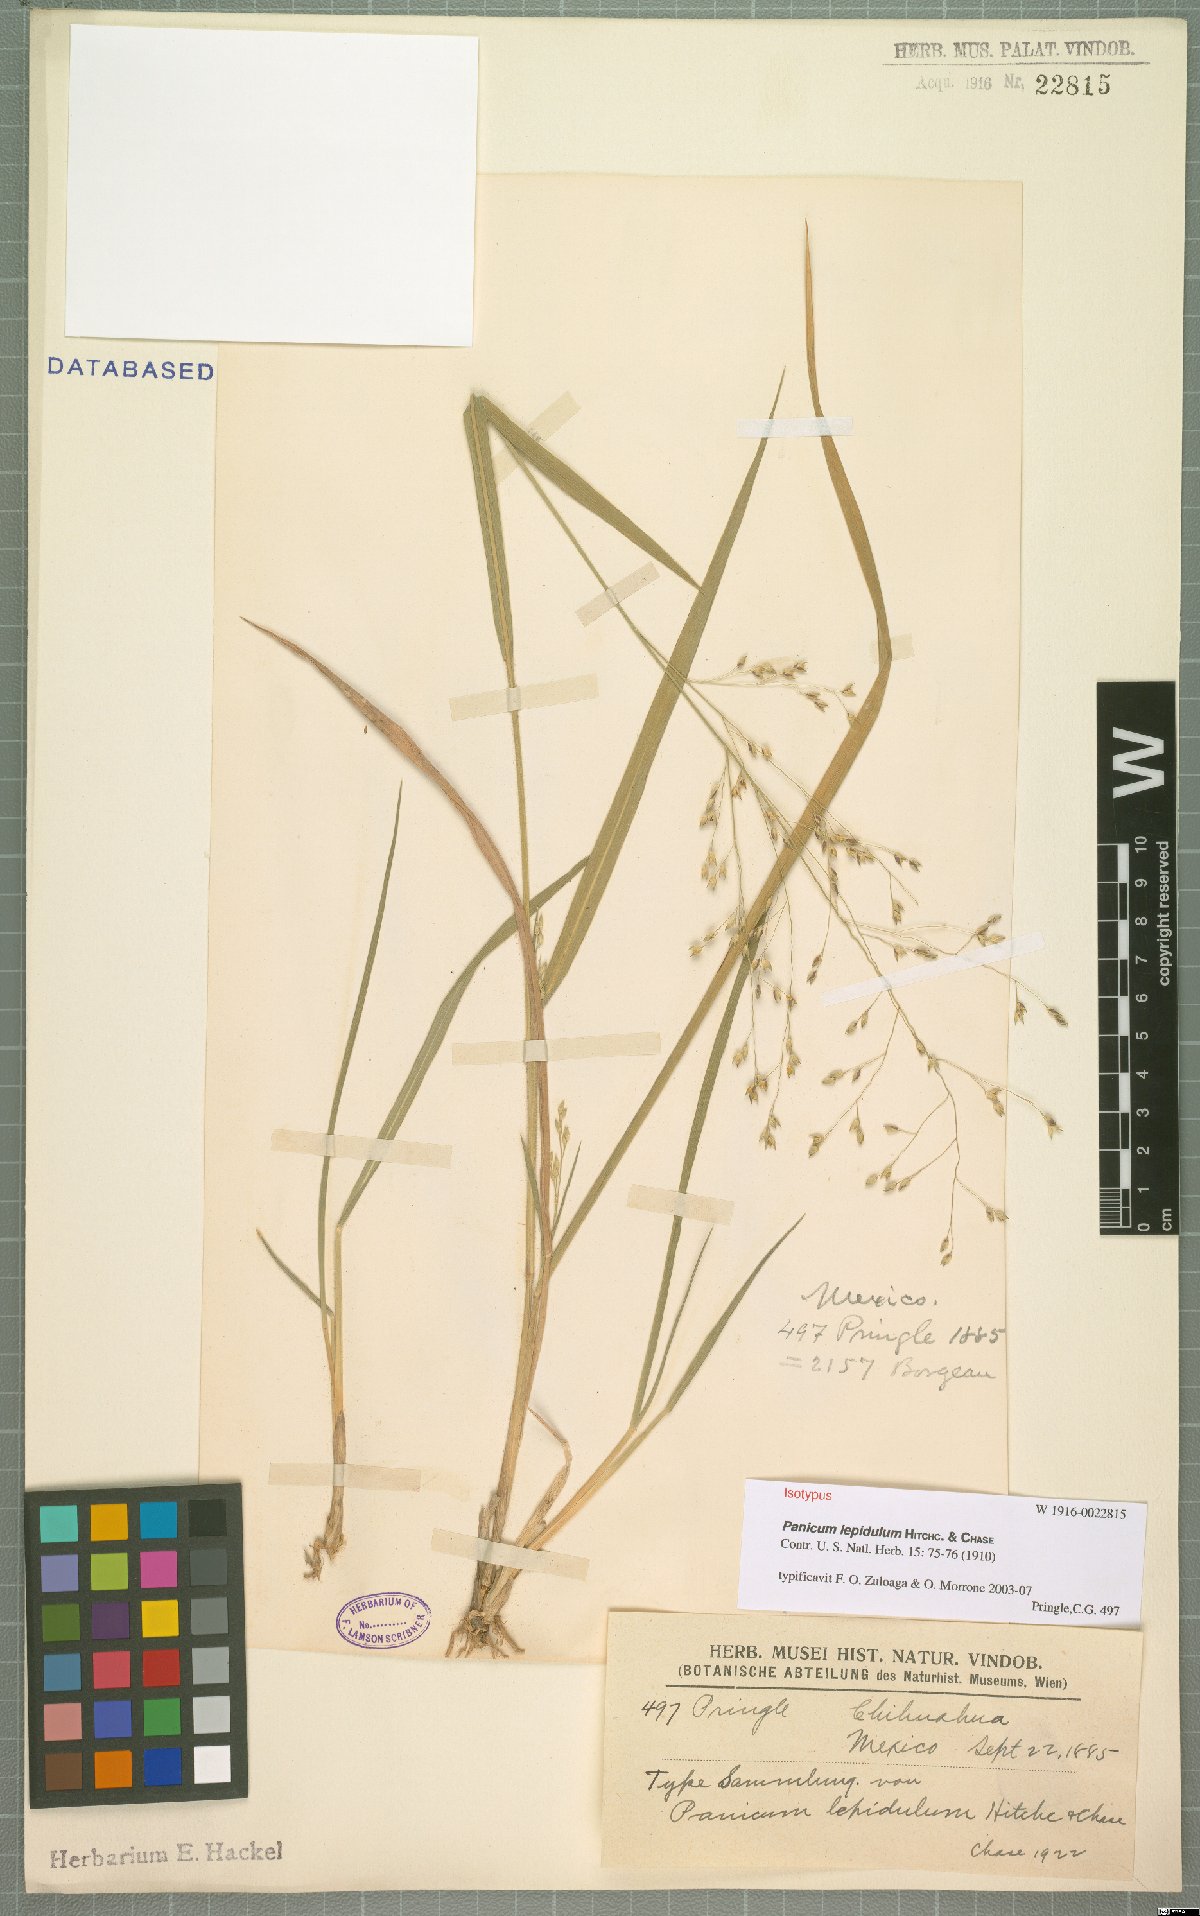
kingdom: Plantae
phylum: Tracheophyta
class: Liliopsida
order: Poales
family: Poaceae
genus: Panicum
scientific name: Panicum lepidulum
